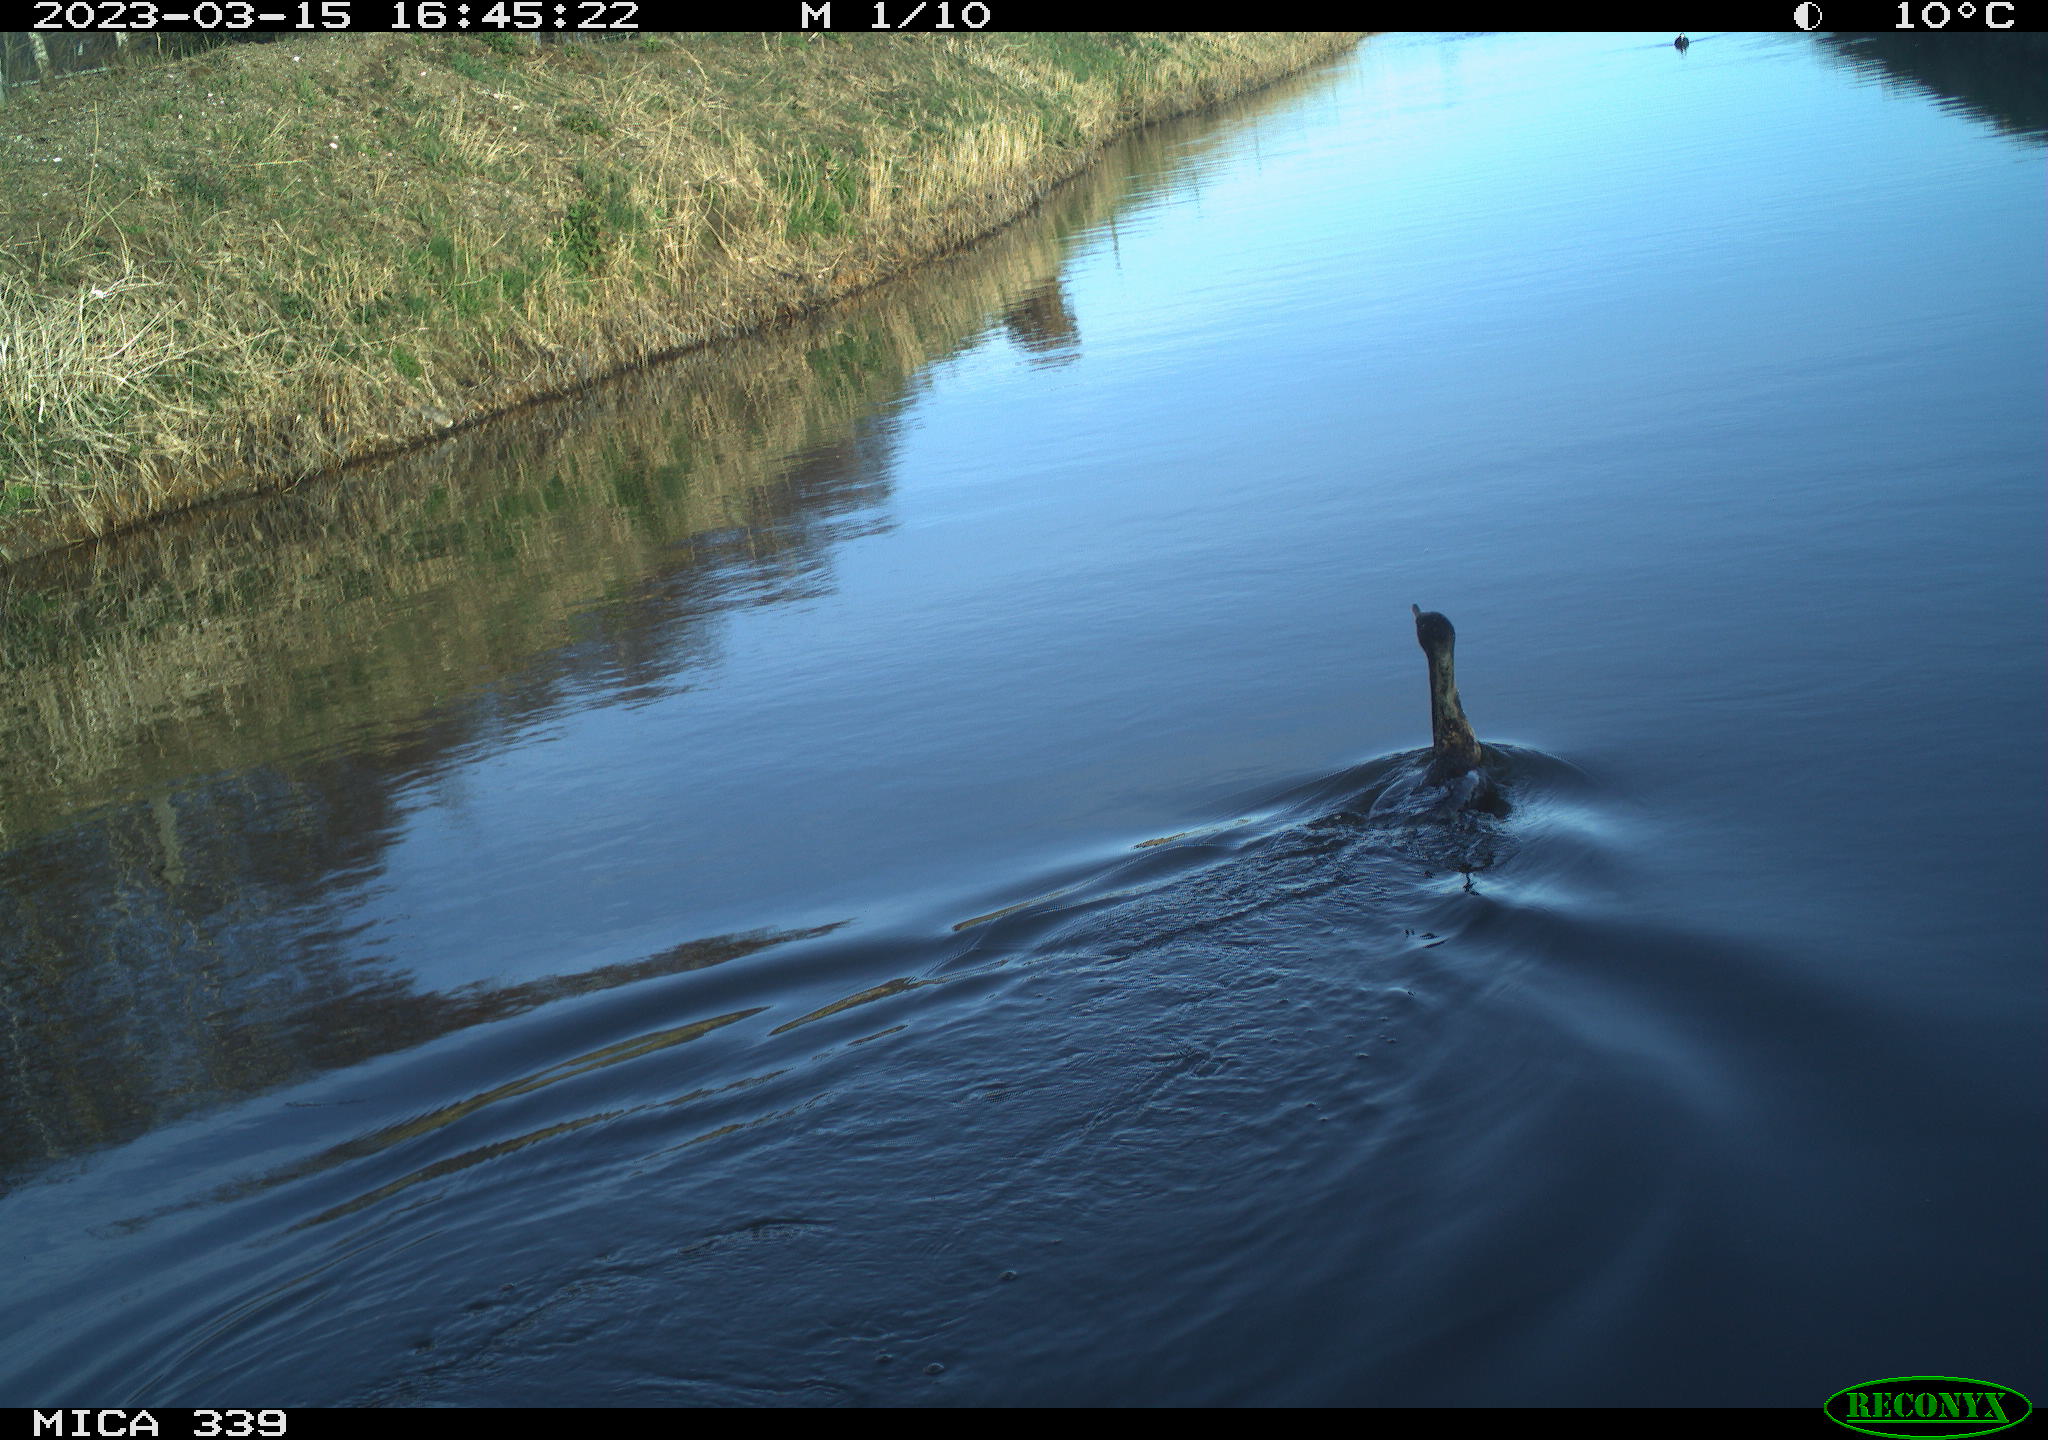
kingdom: Animalia
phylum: Chordata
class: Aves
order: Suliformes
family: Phalacrocoracidae
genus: Phalacrocorax
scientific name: Phalacrocorax carbo
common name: Great cormorant
